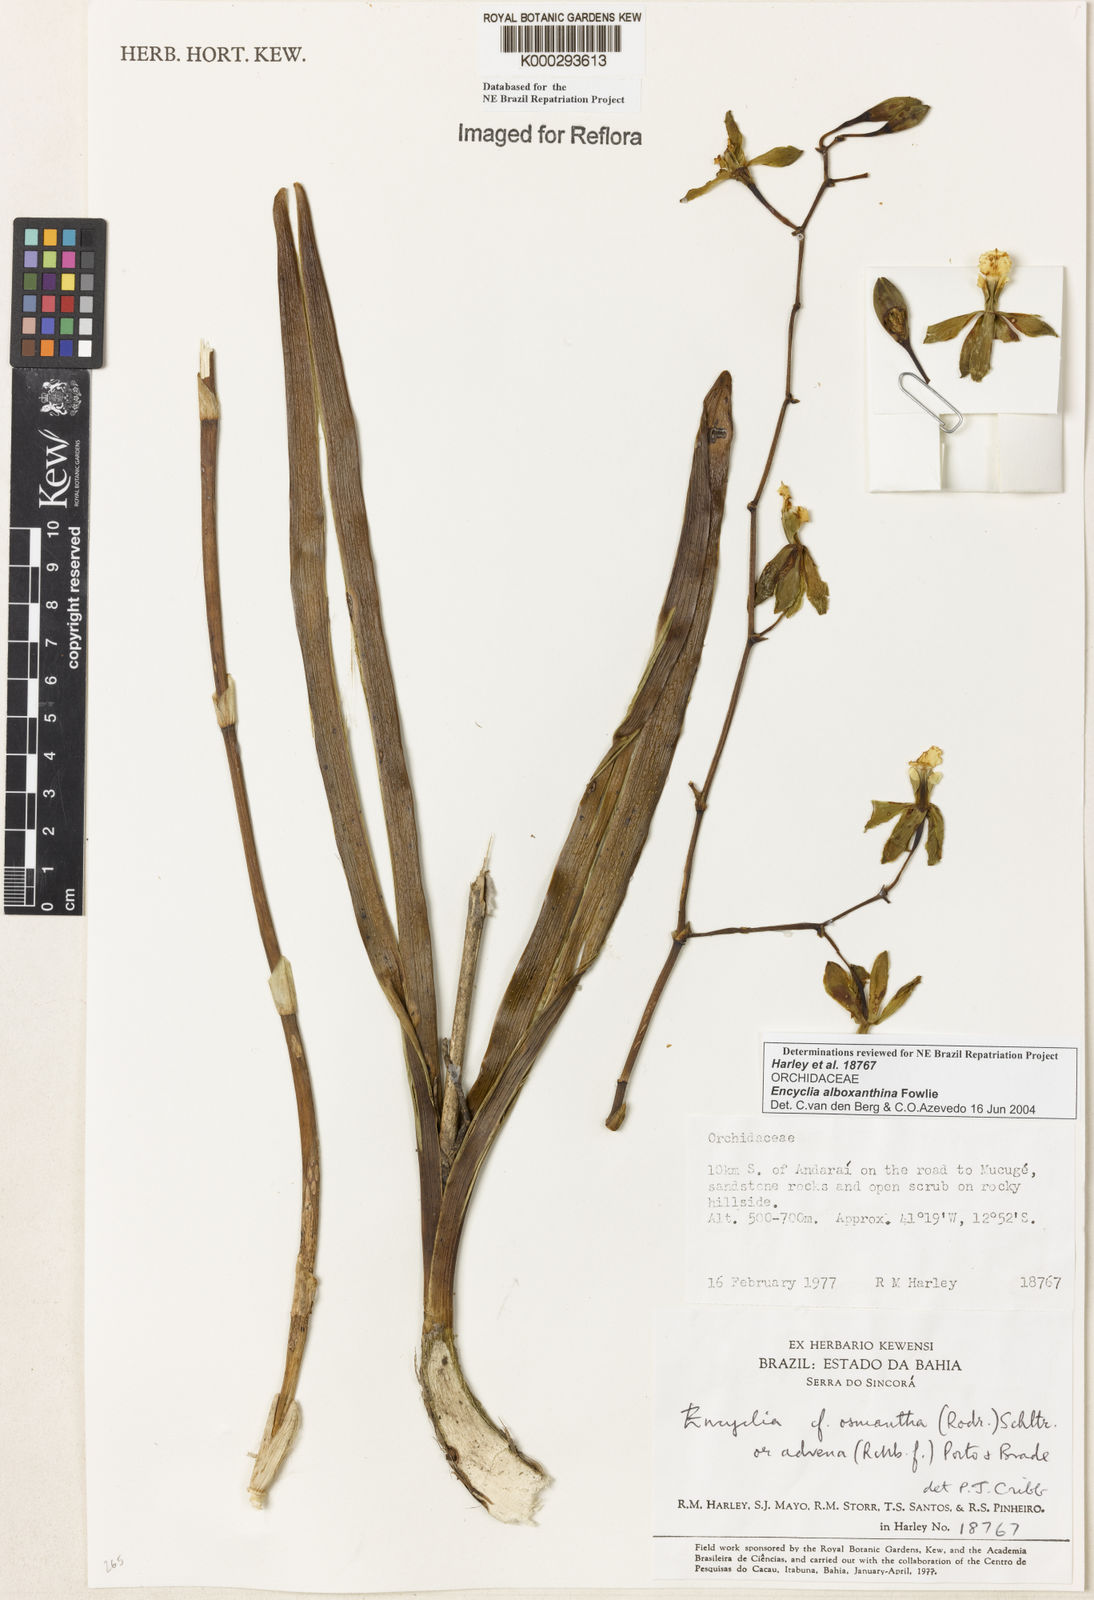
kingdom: Plantae
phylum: Tracheophyta
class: Liliopsida
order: Asparagales
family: Orchidaceae
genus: Encyclia
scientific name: Encyclia alboxanthina
